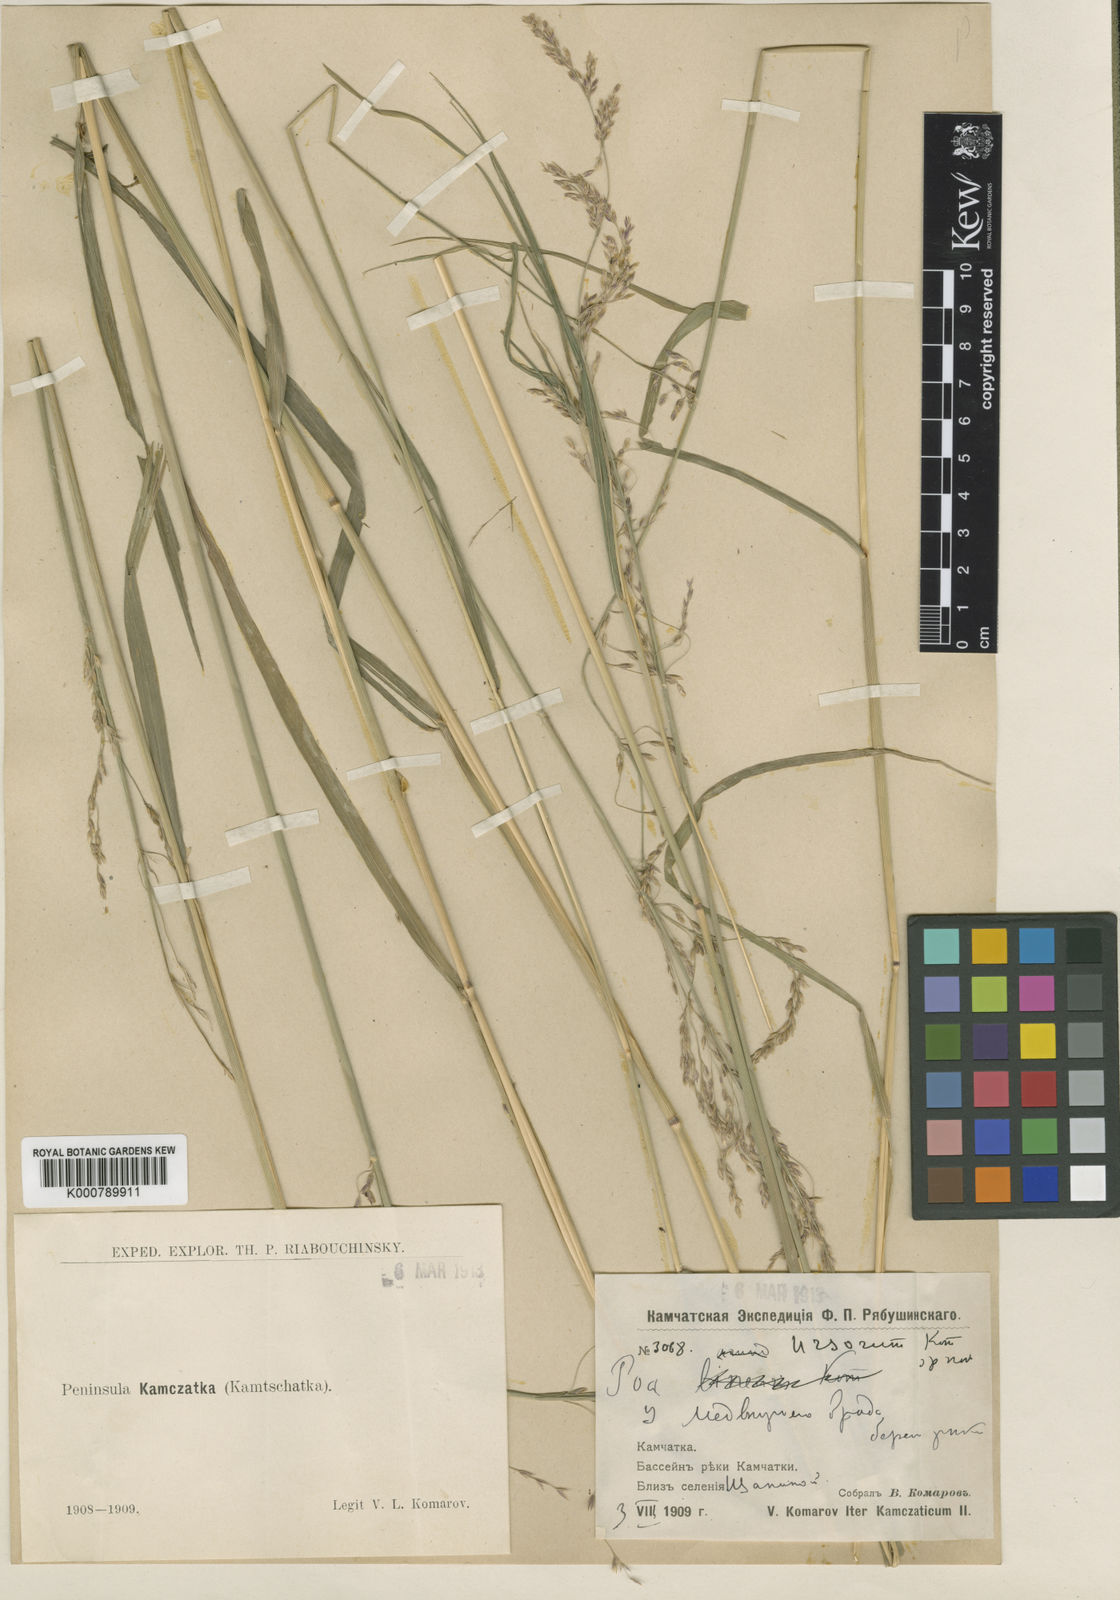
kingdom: Plantae
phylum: Tracheophyta
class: Liliopsida
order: Poales
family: Poaceae
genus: Arctagrostis
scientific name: Arctagrostis latifolia
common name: Arctic grass
